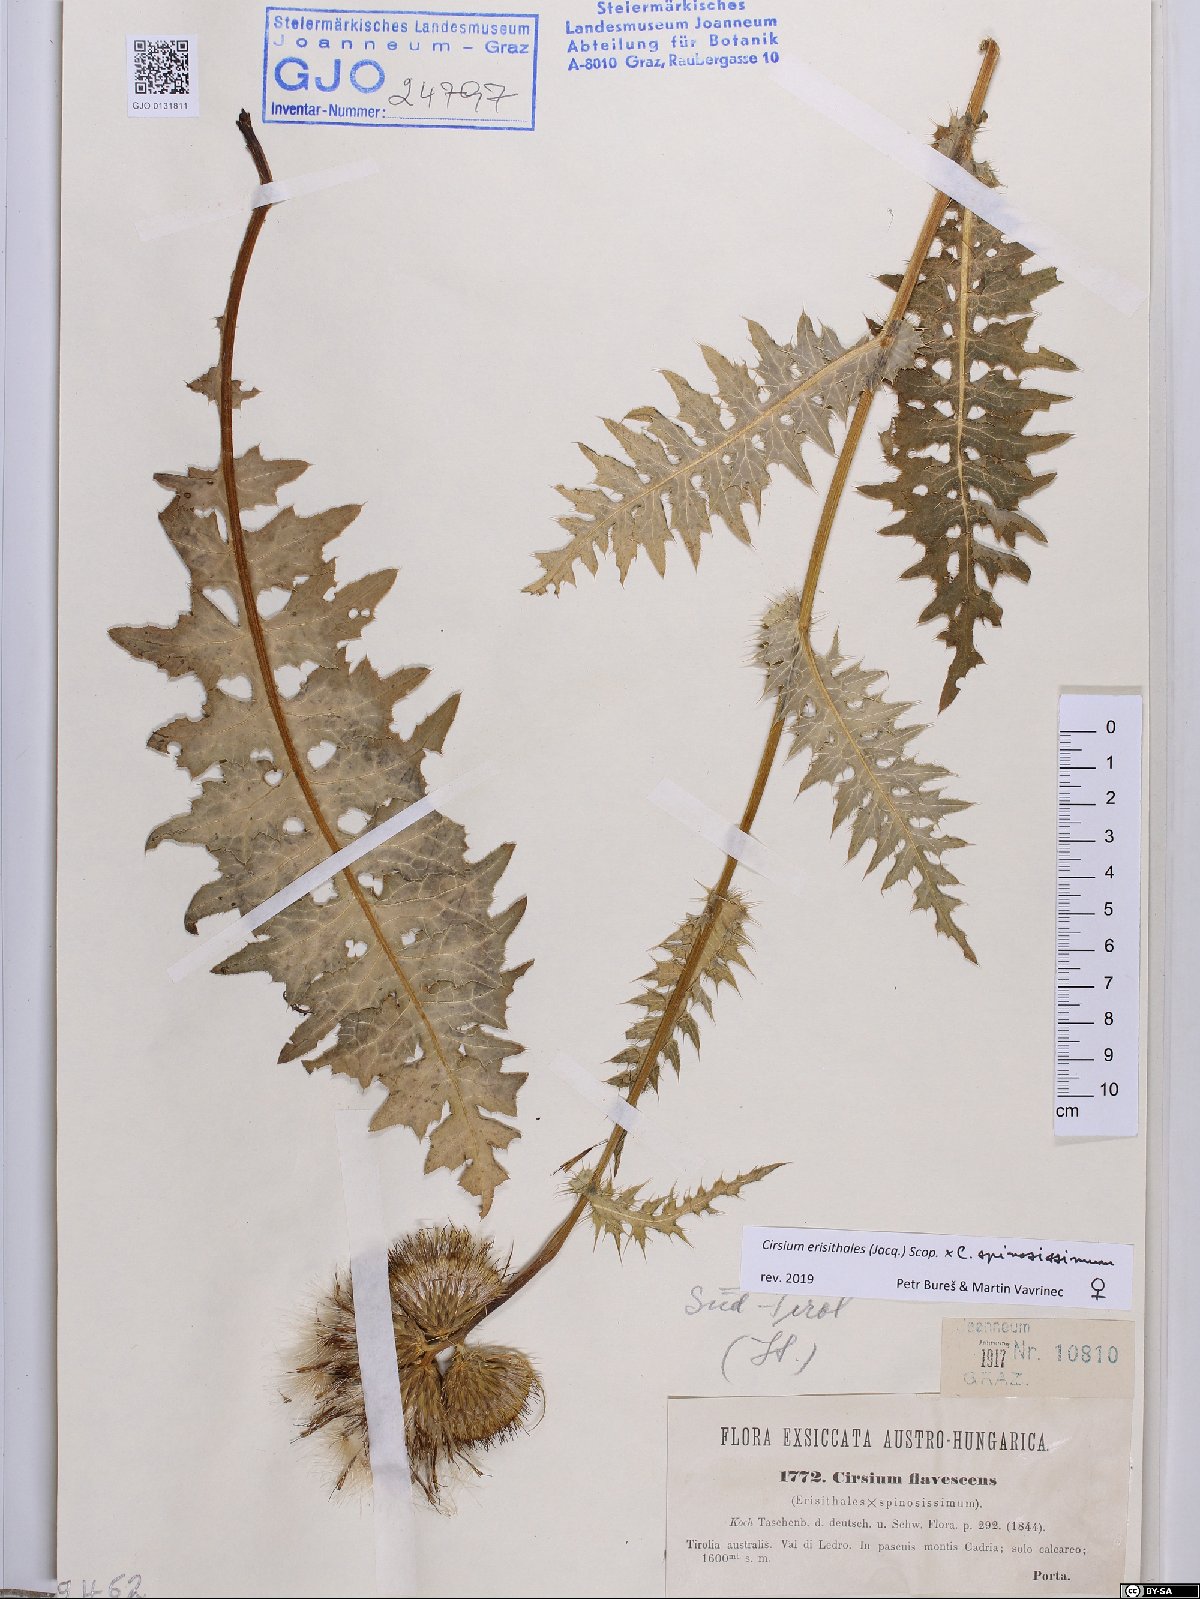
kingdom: Plantae
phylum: Tracheophyta
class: Magnoliopsida
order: Asterales
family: Asteraceae
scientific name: Asteraceae
